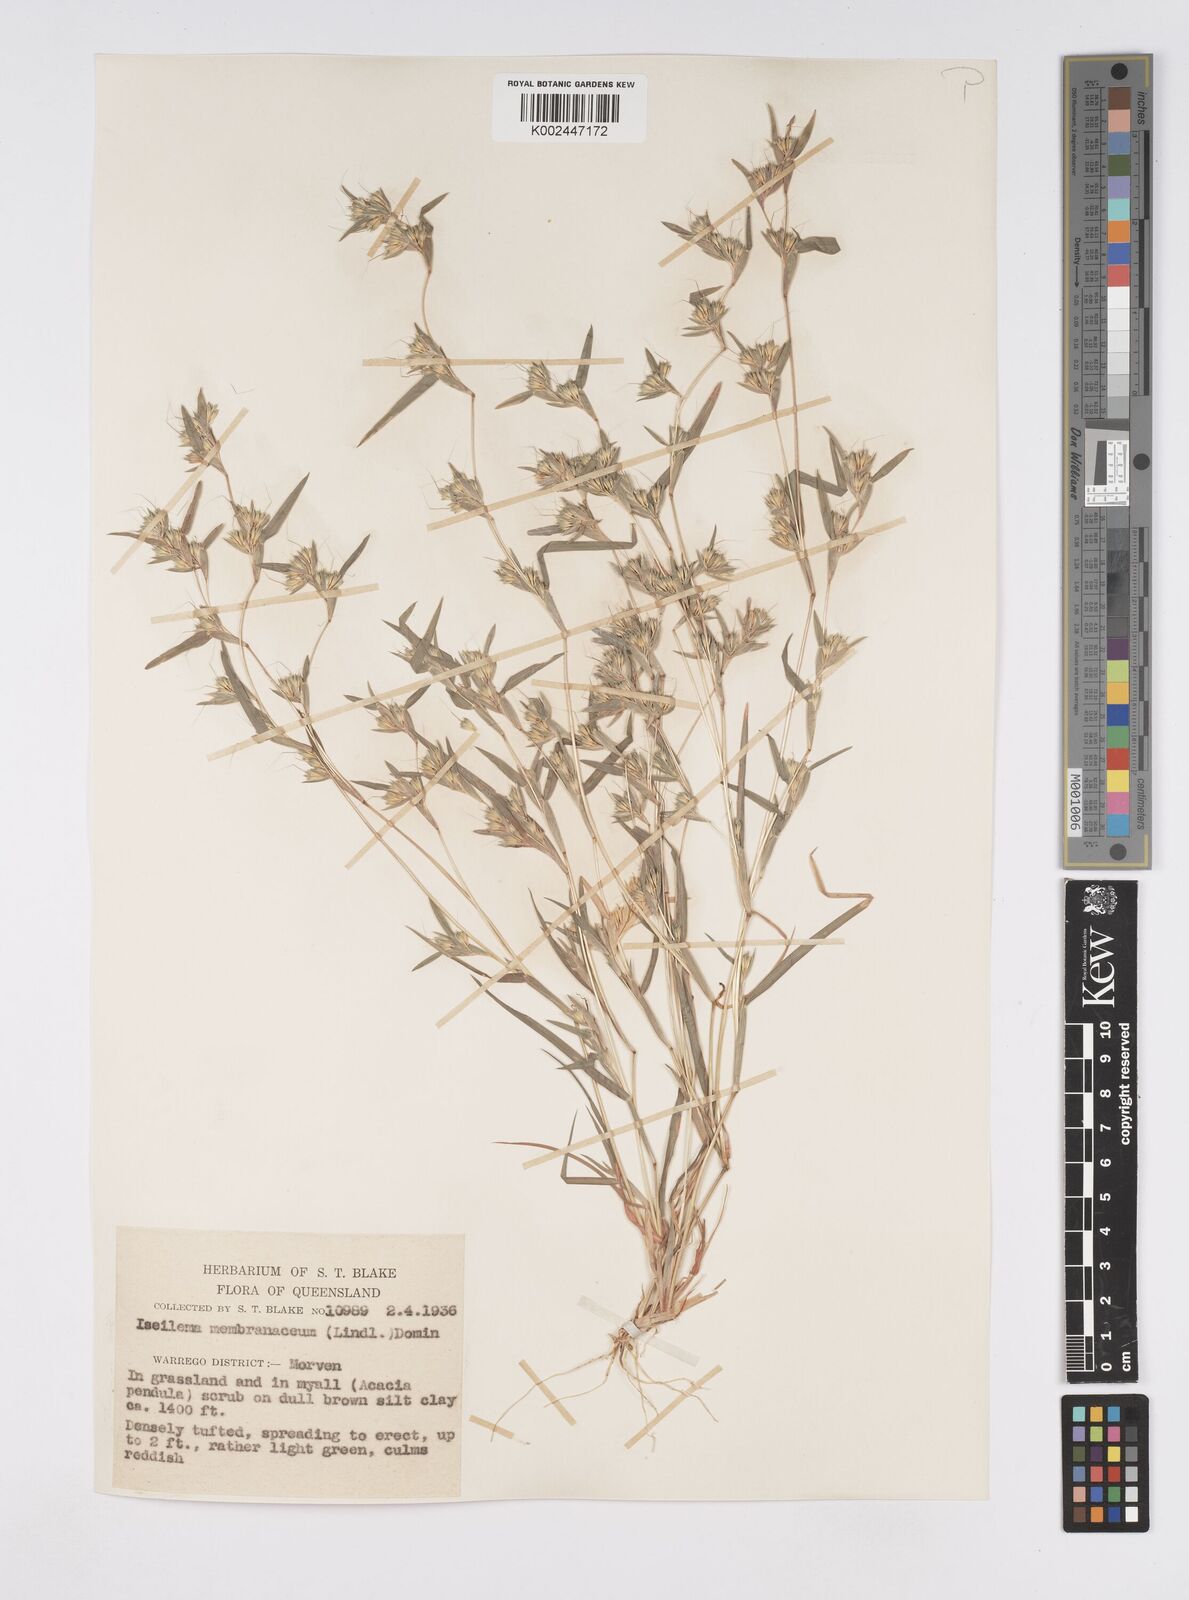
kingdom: Plantae
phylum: Tracheophyta
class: Liliopsida
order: Poales
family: Poaceae
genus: Iseilema
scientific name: Iseilema membranaceum
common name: Small flinders grass
